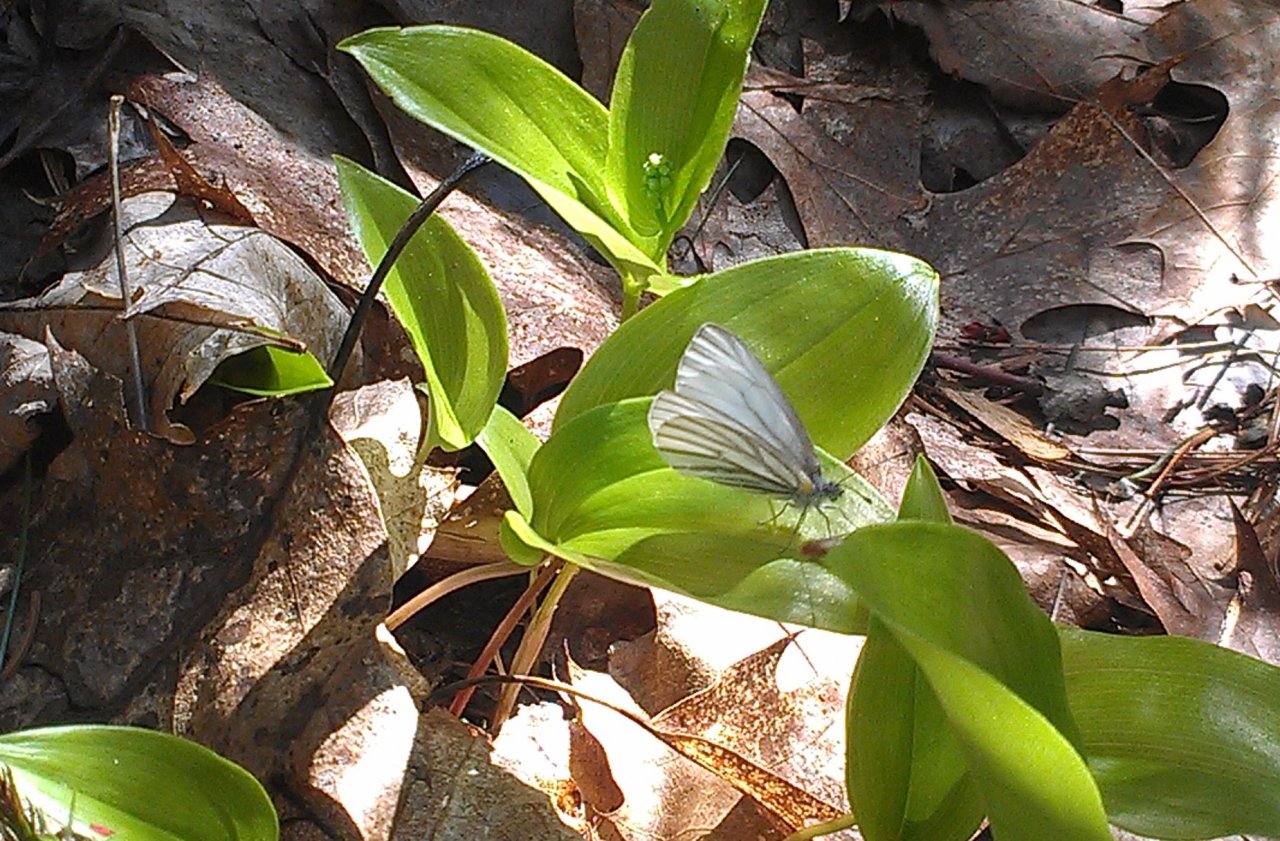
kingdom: Animalia
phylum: Arthropoda
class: Insecta
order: Lepidoptera
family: Pieridae
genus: Pieris
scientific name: Pieris oleracea
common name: Mustard White
